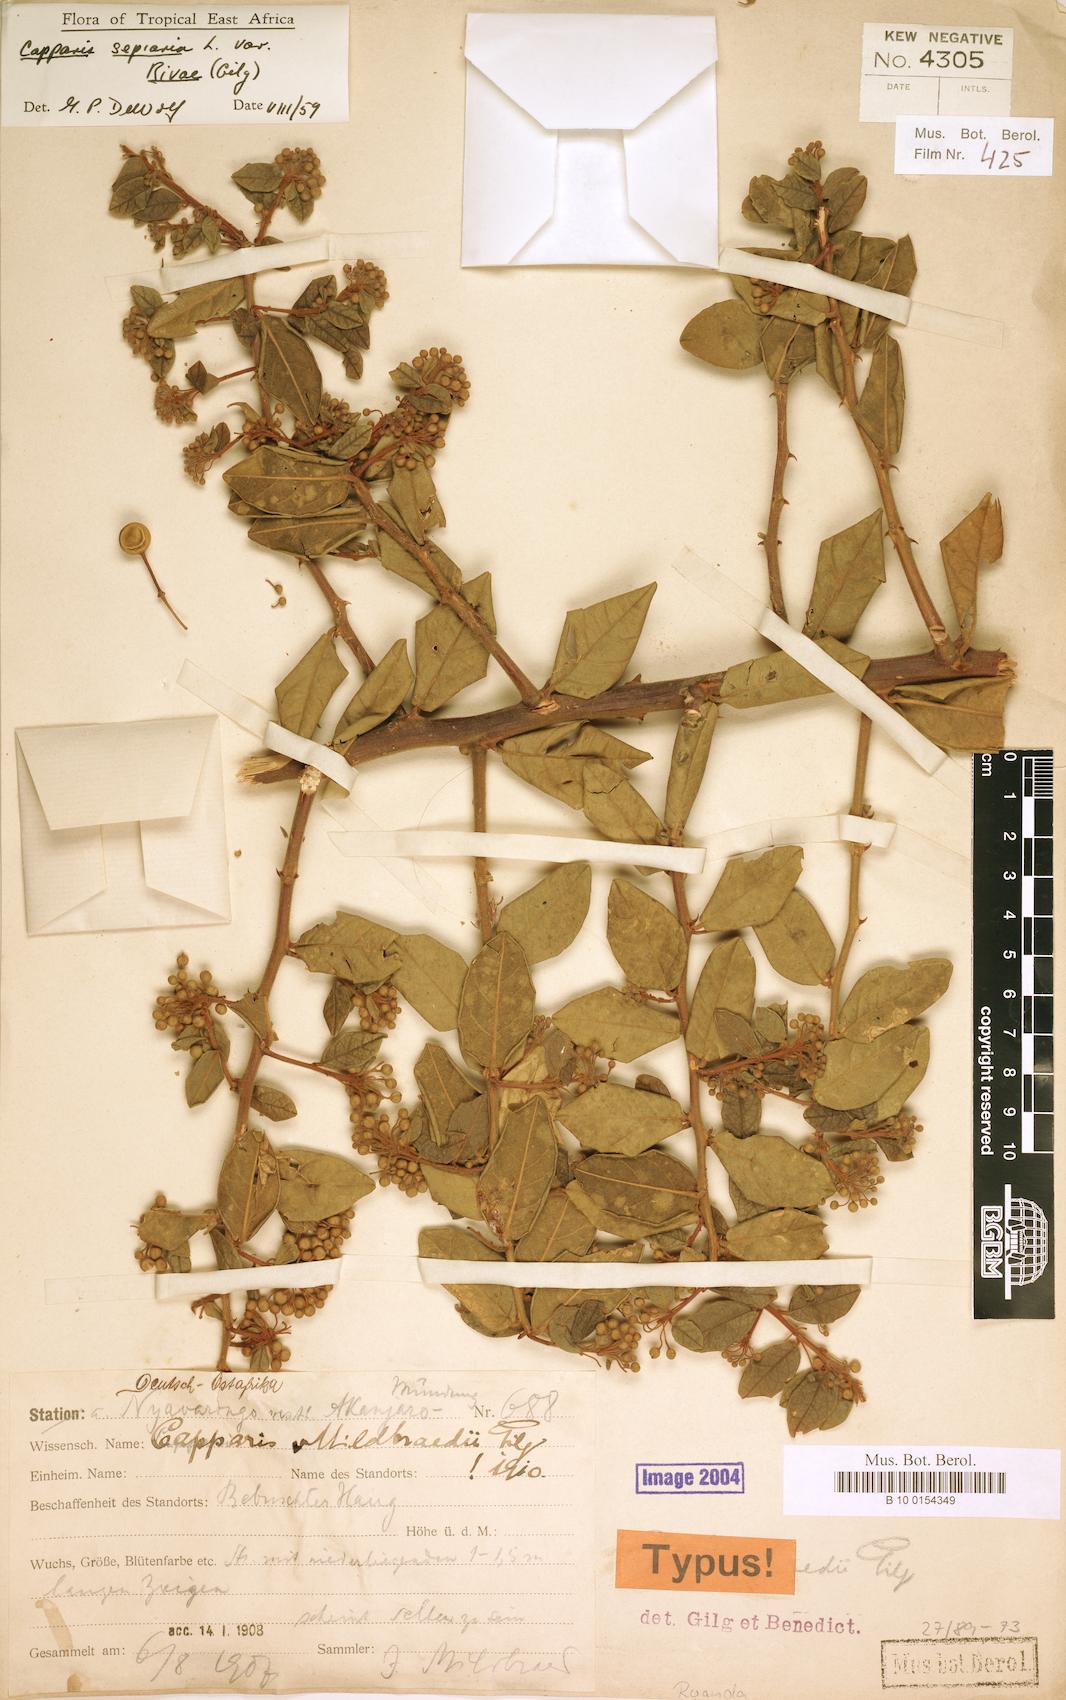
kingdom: Plantae
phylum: Tracheophyta
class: Magnoliopsida
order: Brassicales
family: Capparaceae
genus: Capparis
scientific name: Capparis sepiaria
